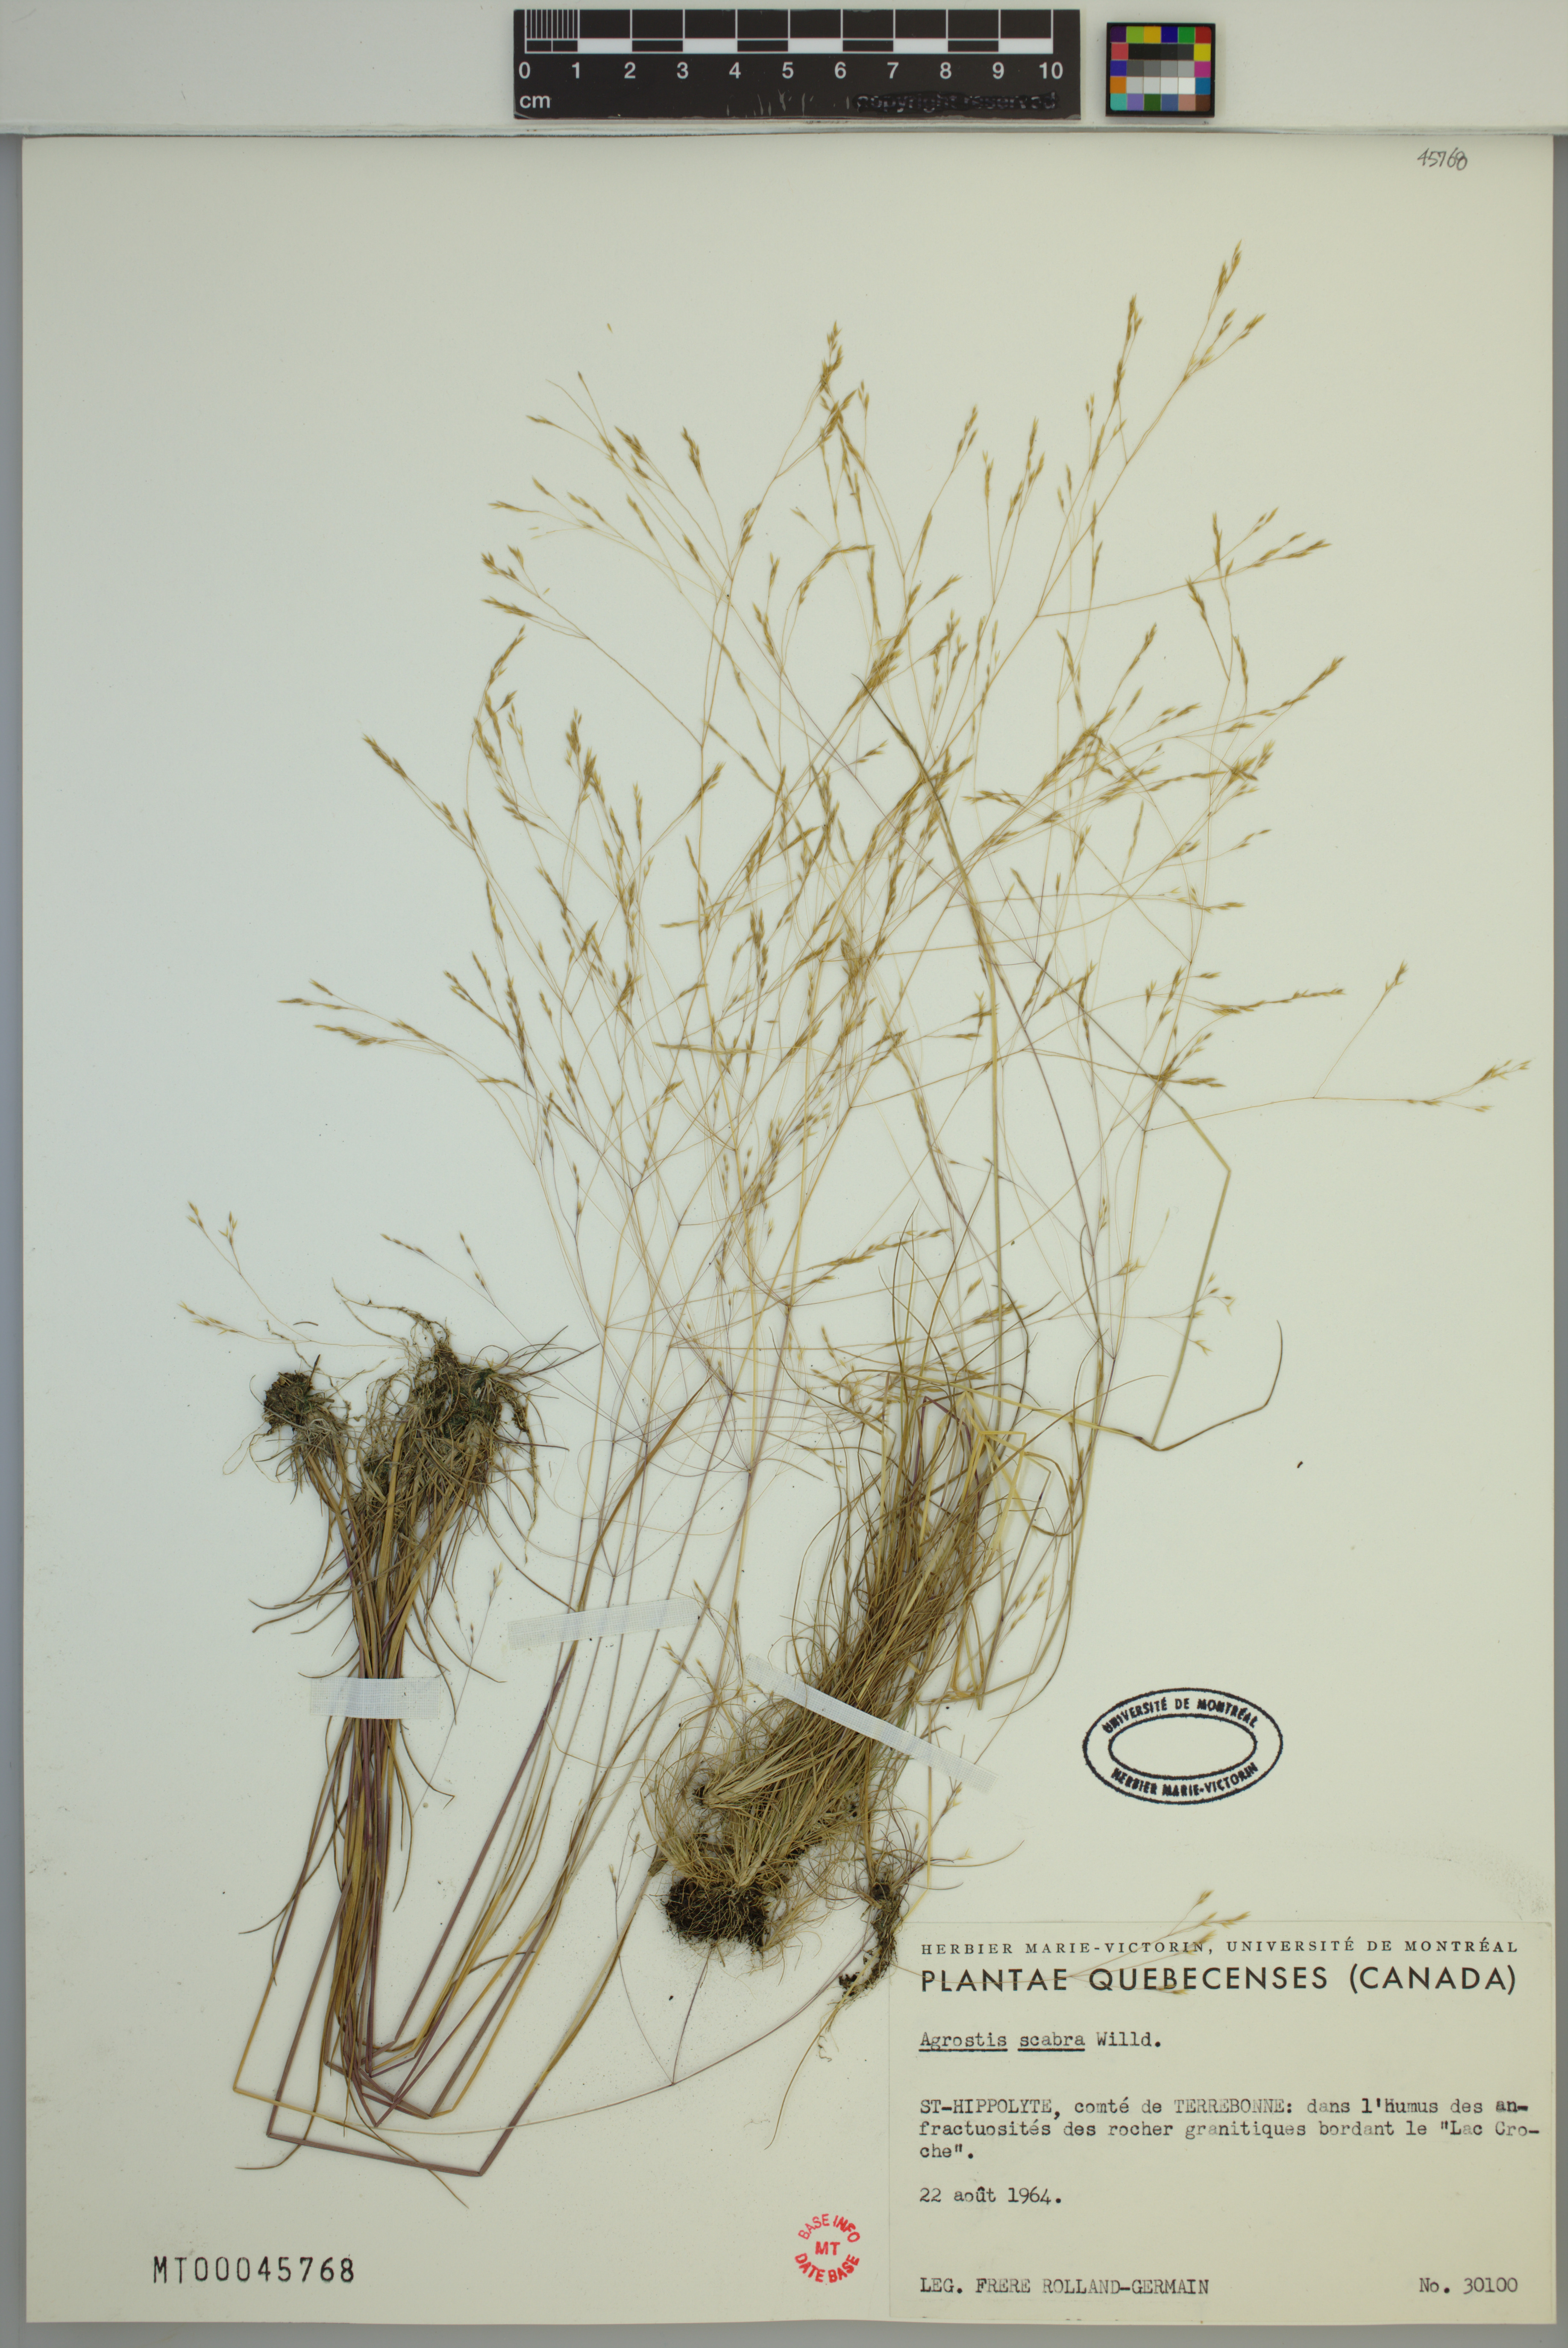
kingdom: Plantae
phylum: Tracheophyta
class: Liliopsida
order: Poales
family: Poaceae
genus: Agrostis
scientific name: Agrostis scabra
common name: Rough bent
